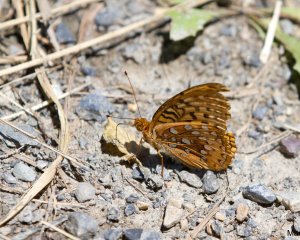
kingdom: Animalia
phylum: Arthropoda
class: Insecta
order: Lepidoptera
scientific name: Lepidoptera
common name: Butterflies
